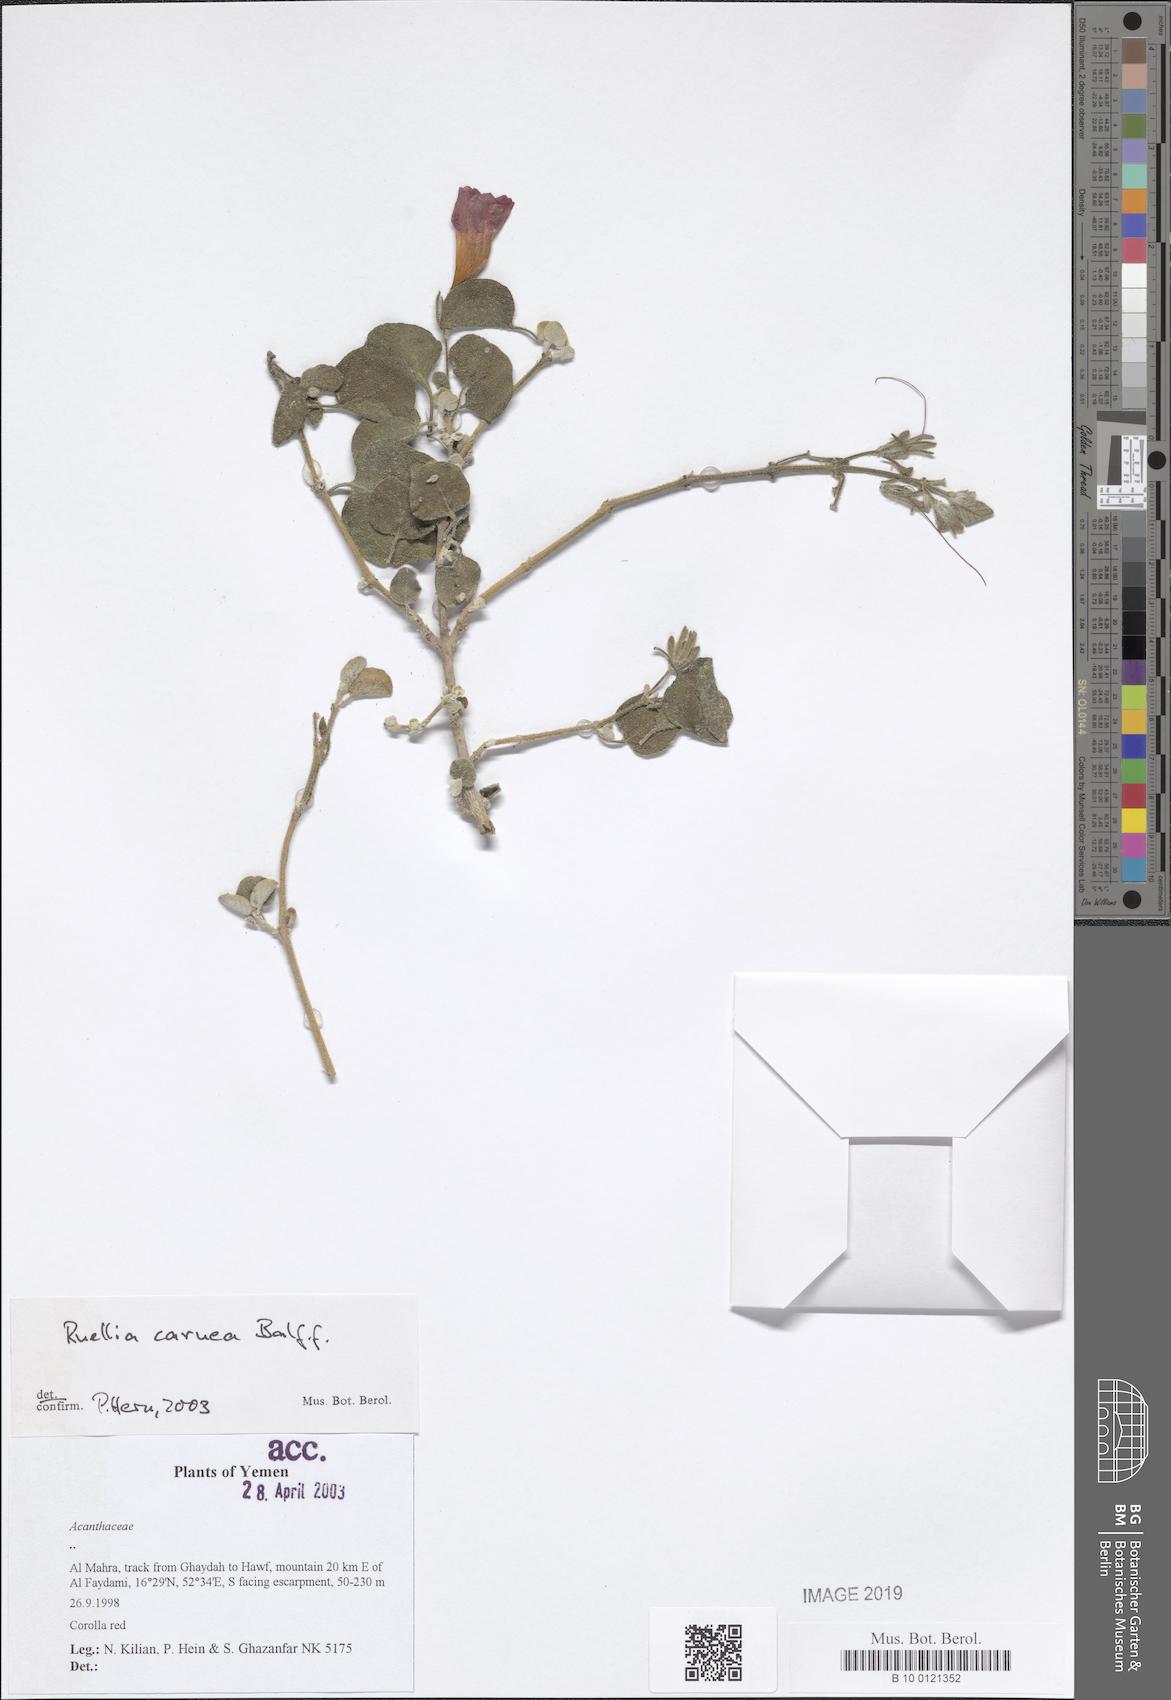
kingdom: Plantae
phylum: Tracheophyta
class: Magnoliopsida
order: Lamiales
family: Acanthaceae
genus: Ruellia
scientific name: Ruellia carnea
